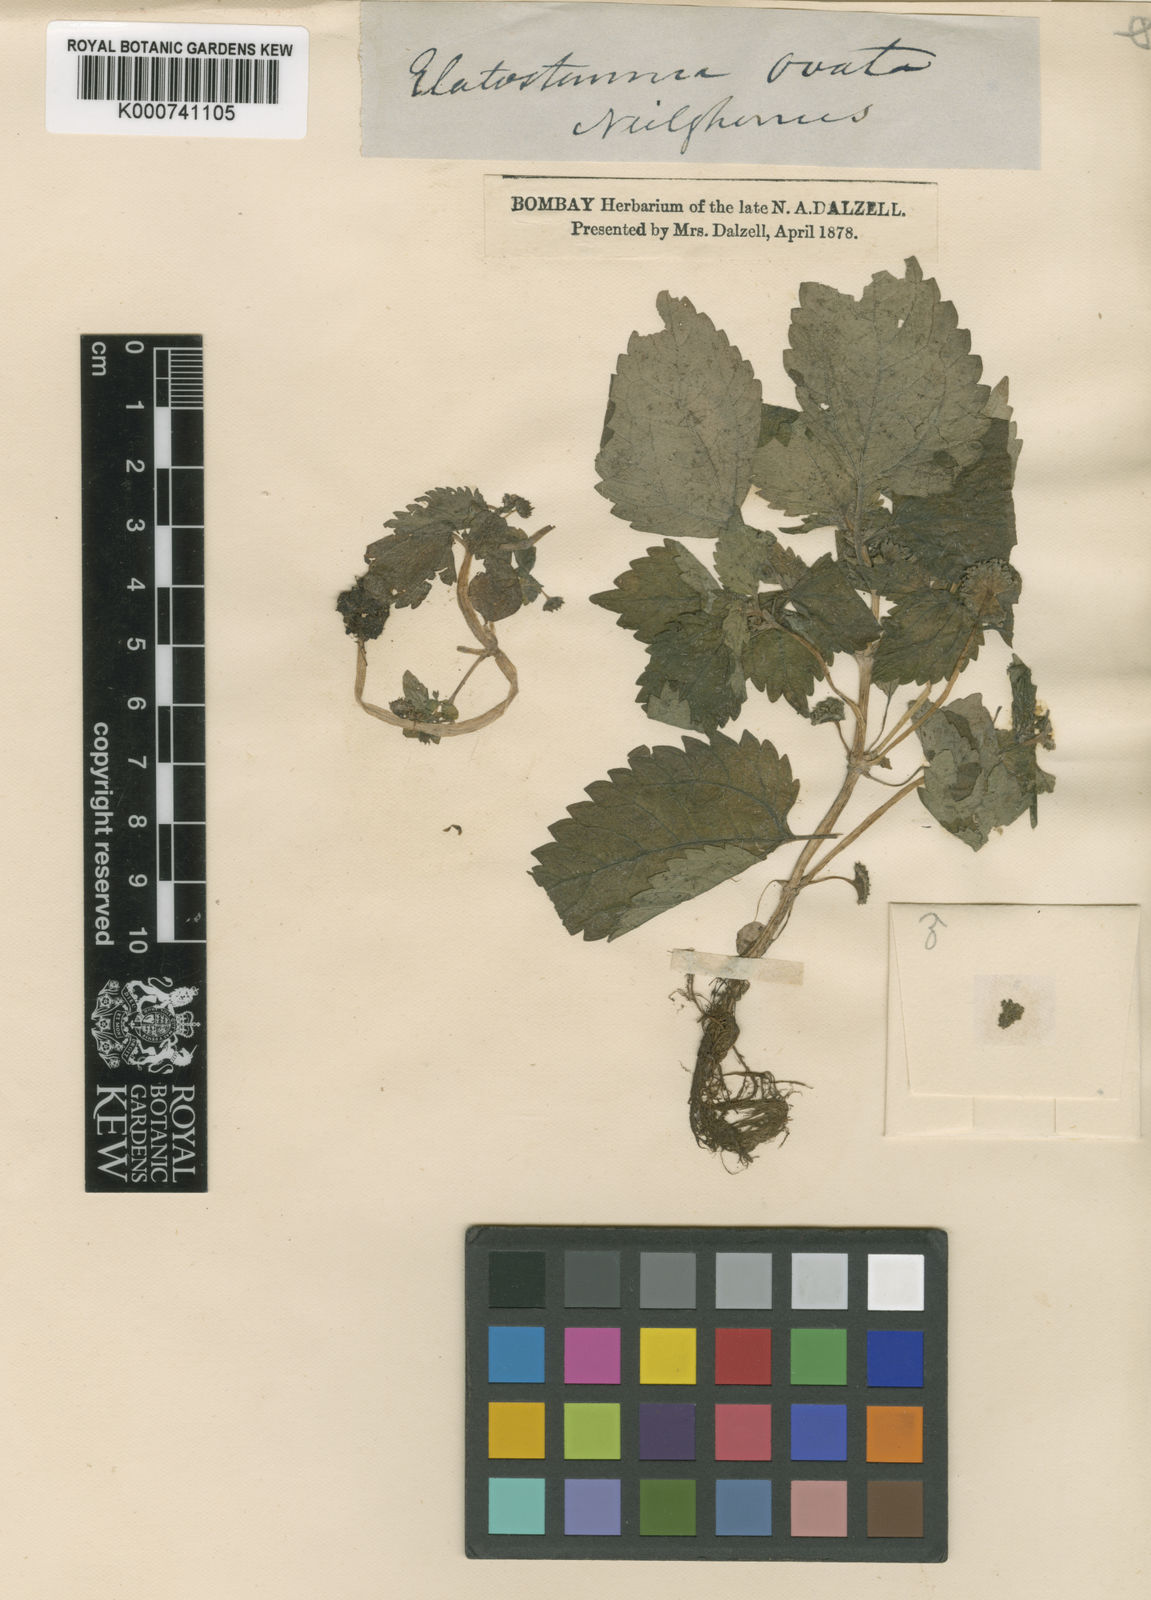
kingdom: Plantae
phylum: Tracheophyta
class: Magnoliopsida
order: Rosales
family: Urticaceae
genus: Lecanthus
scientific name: Lecanthus obtusus
